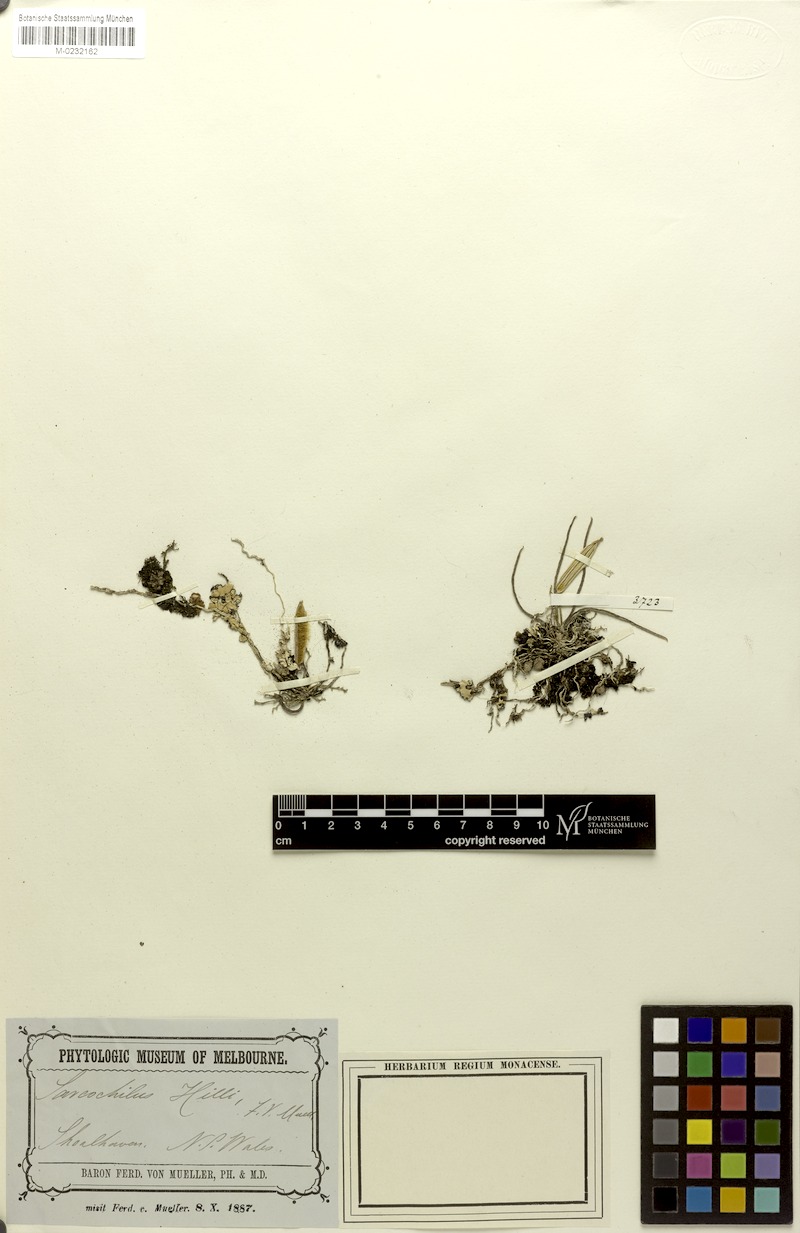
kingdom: Plantae
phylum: Tracheophyta
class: Liliopsida
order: Asparagales
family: Orchidaceae
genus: Sarcochilus
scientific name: Sarcochilus hillii
